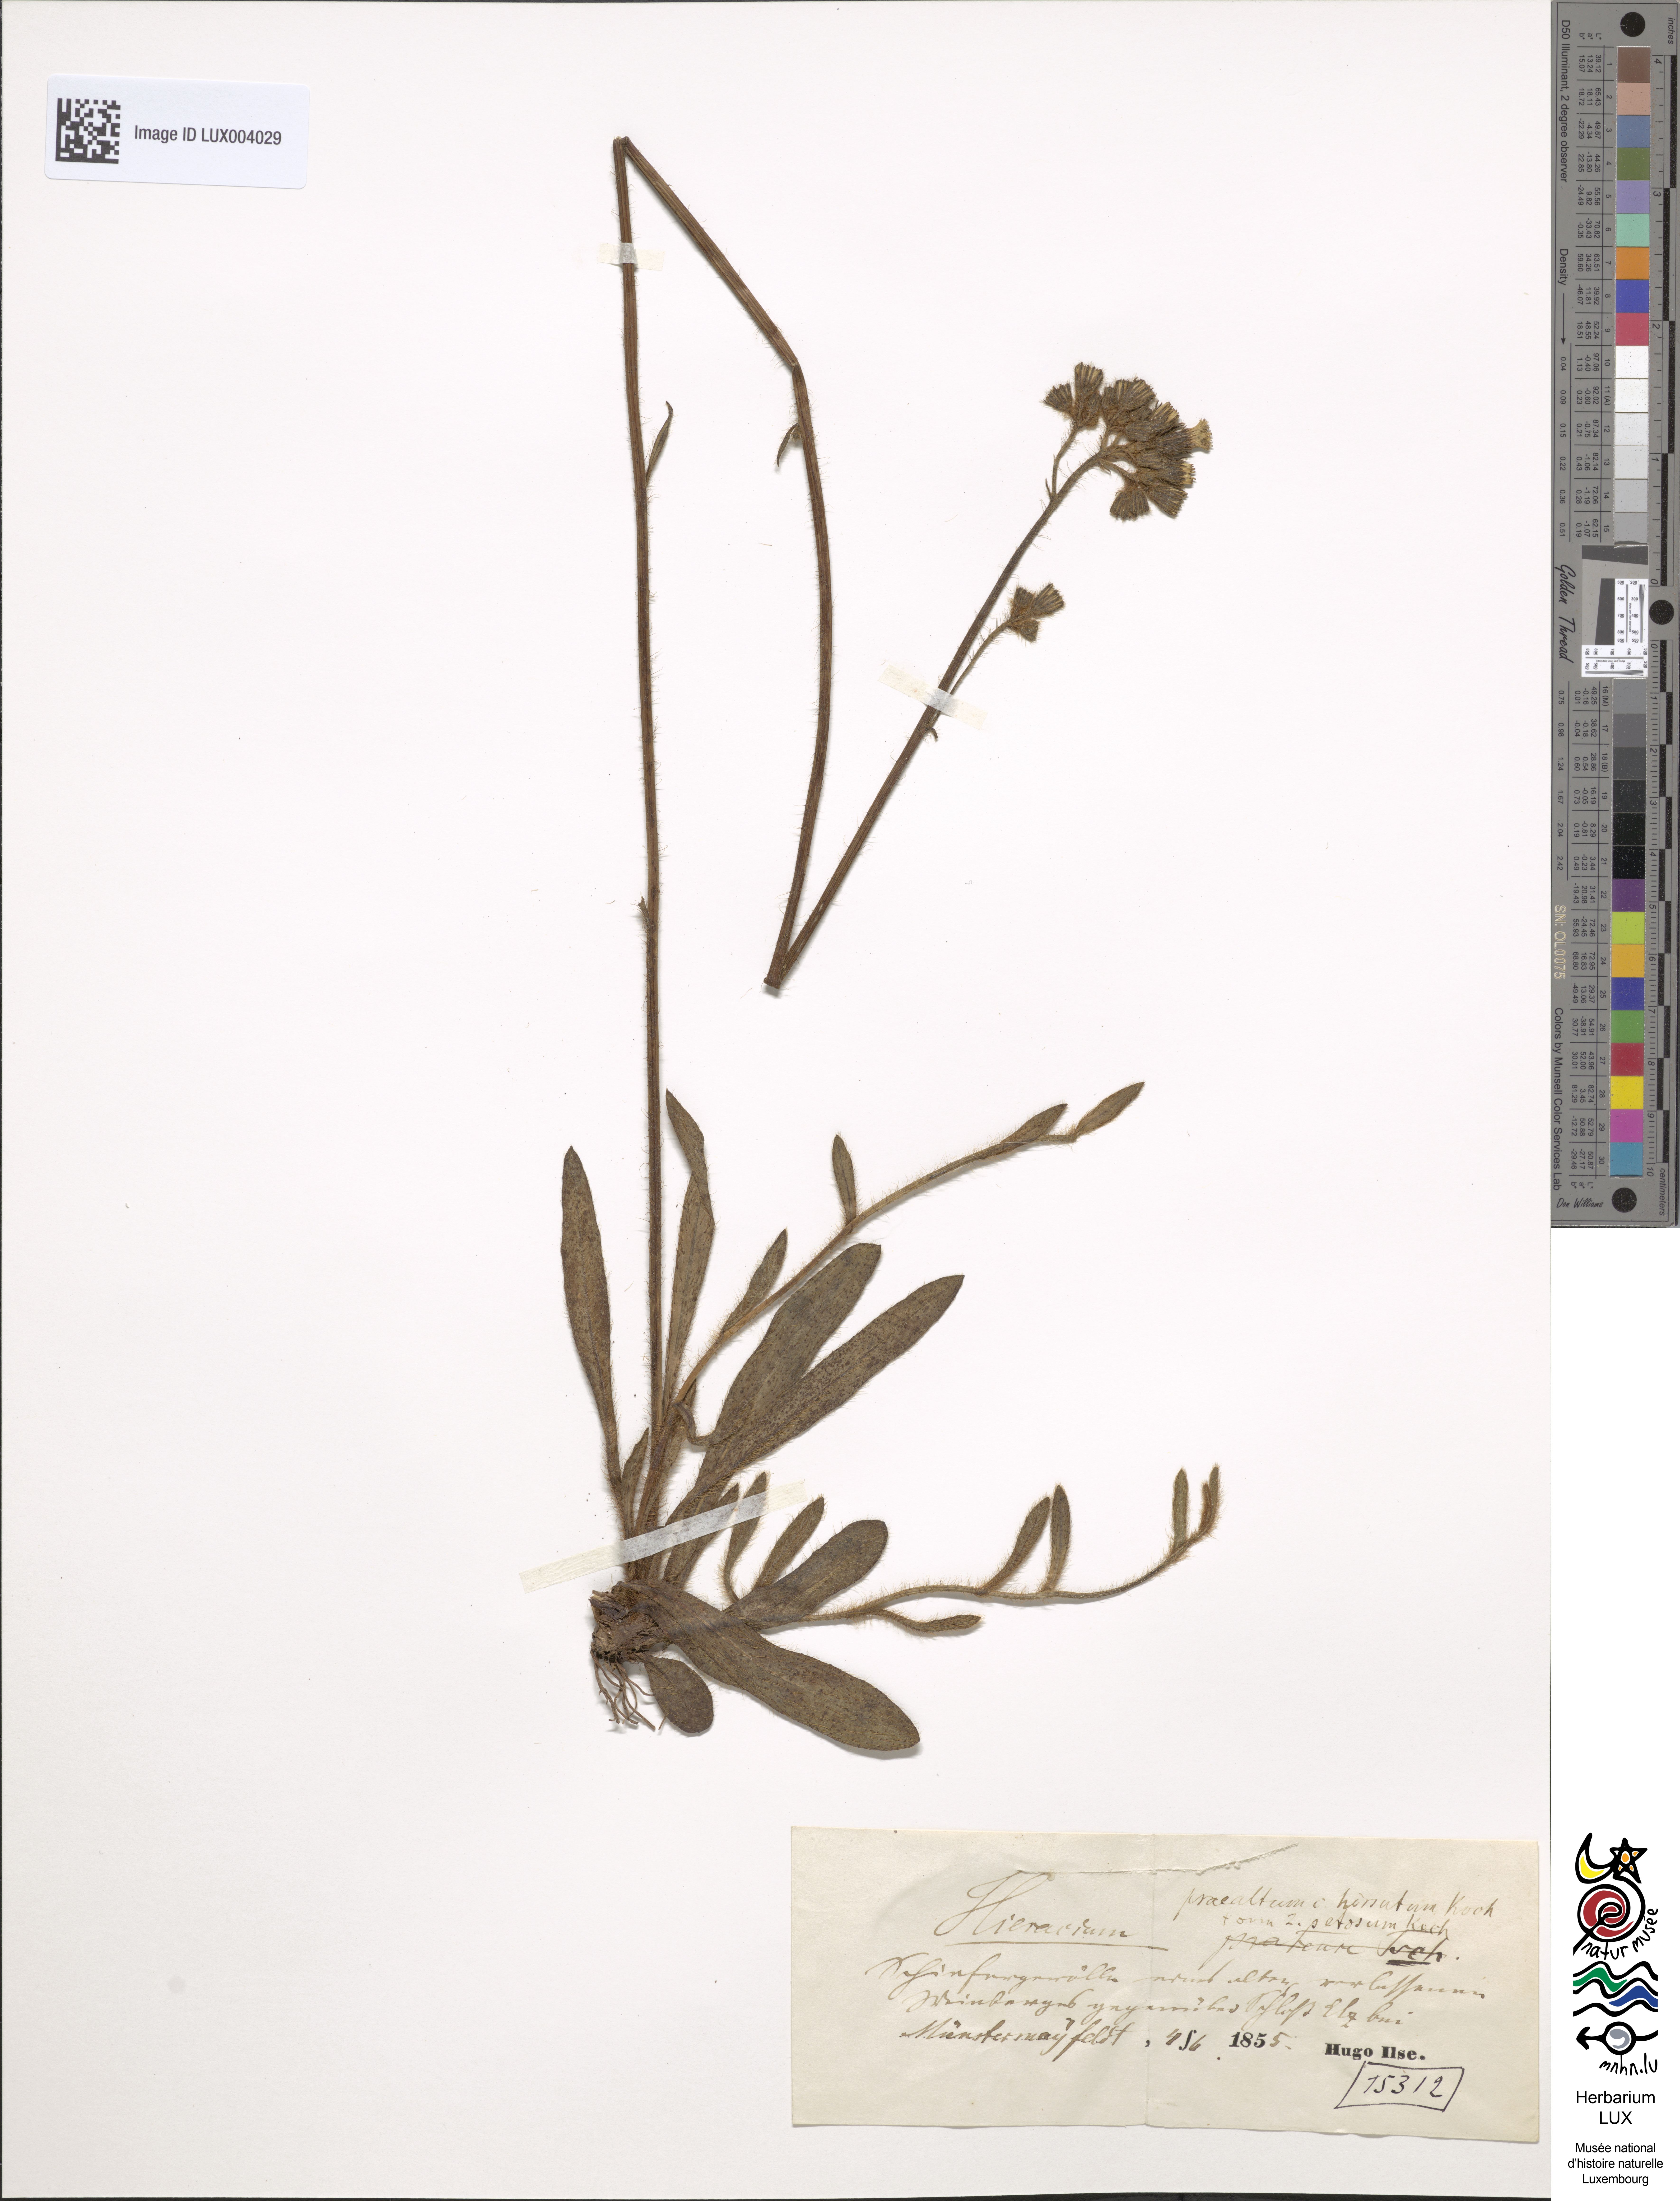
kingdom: Plantae
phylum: Tracheophyta
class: Magnoliopsida
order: Asterales
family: Asteraceae
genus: Pilosella
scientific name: Pilosella piloselloides
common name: Glaucous king-devil
